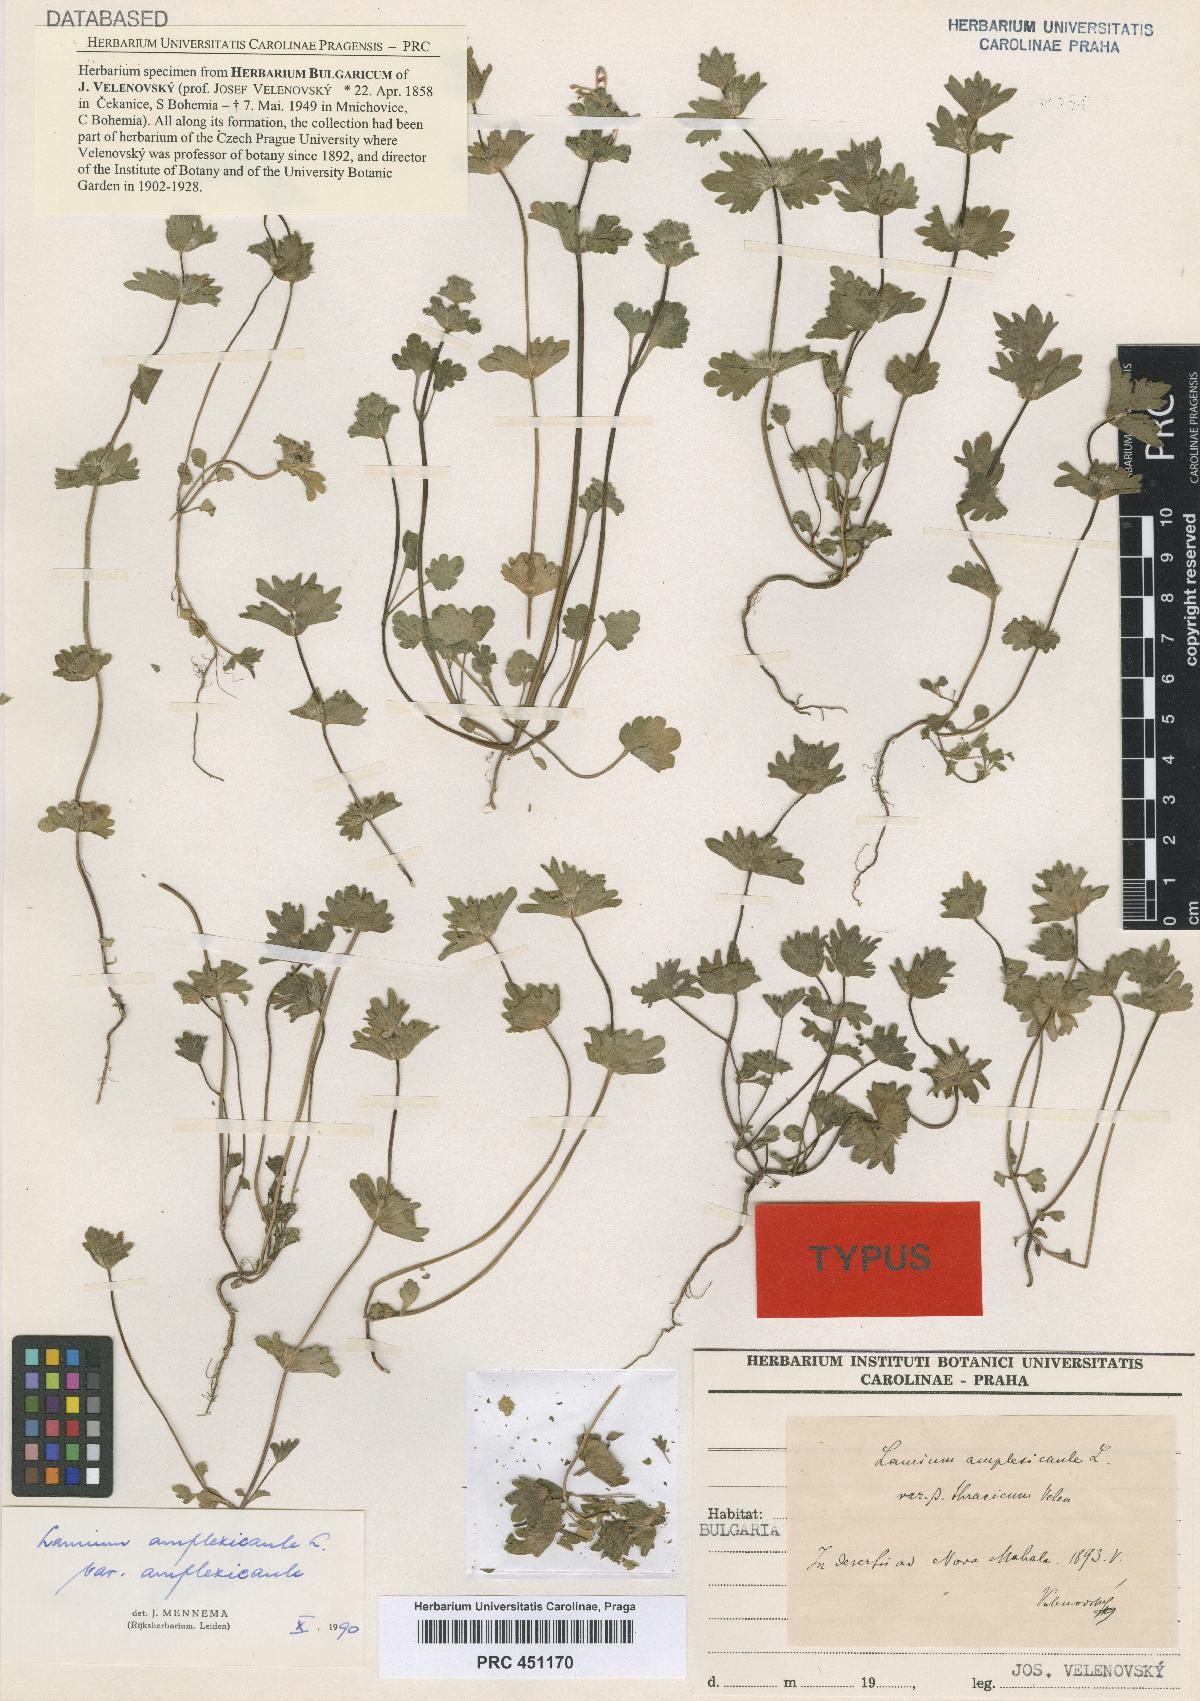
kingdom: Plantae
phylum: Tracheophyta
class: Magnoliopsida
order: Lamiales
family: Lamiaceae
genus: Lamium
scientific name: Lamium amplexicaule
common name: Henbit dead-nettle
